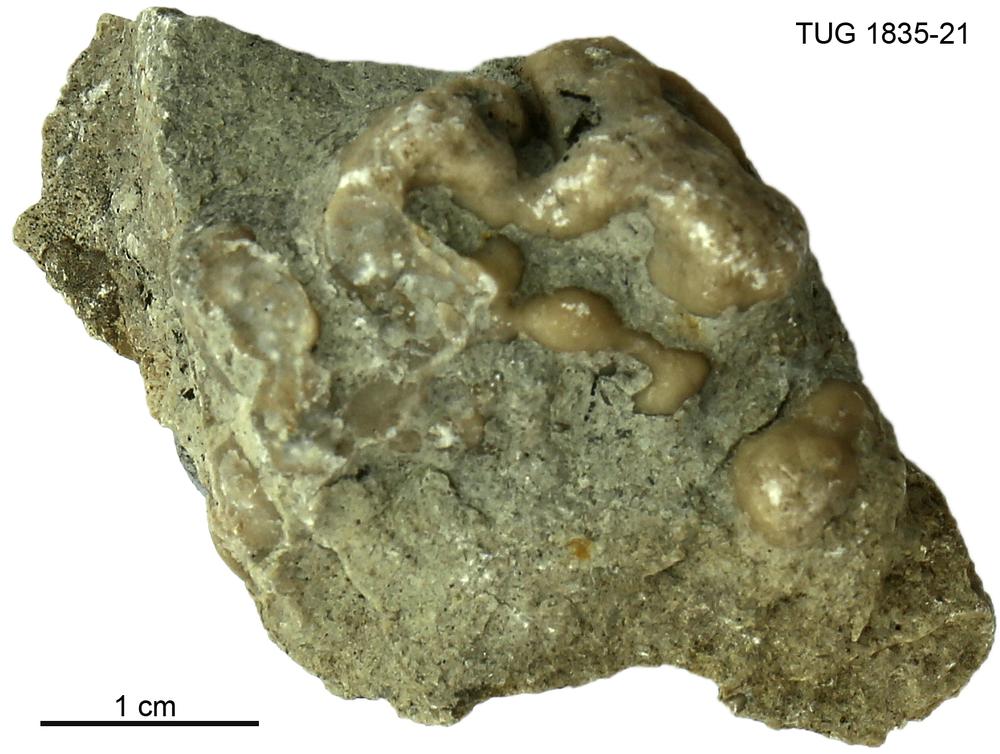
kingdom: Animalia
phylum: Porifera
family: Chaetetidae
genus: Solenopora
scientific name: Solenopora
